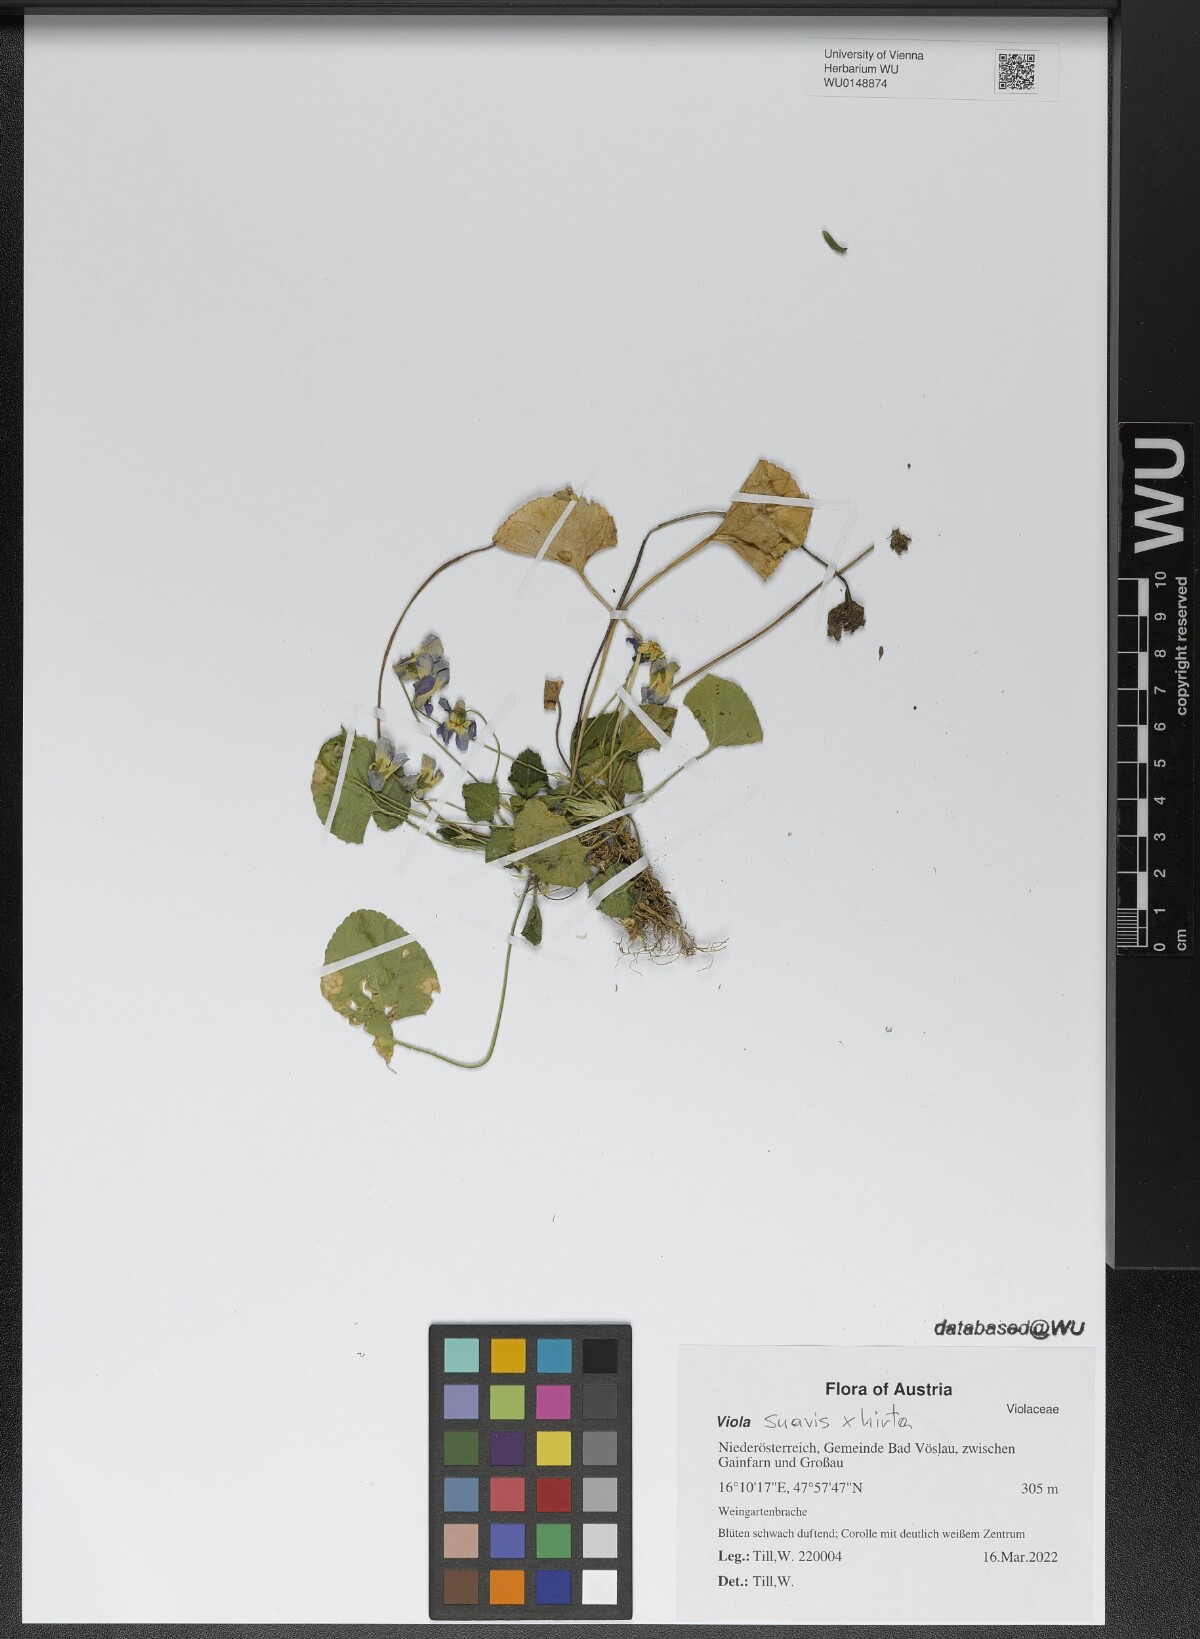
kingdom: Plantae
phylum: Tracheophyta
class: Magnoliopsida
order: Malpighiales
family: Violaceae
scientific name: Violaceae
